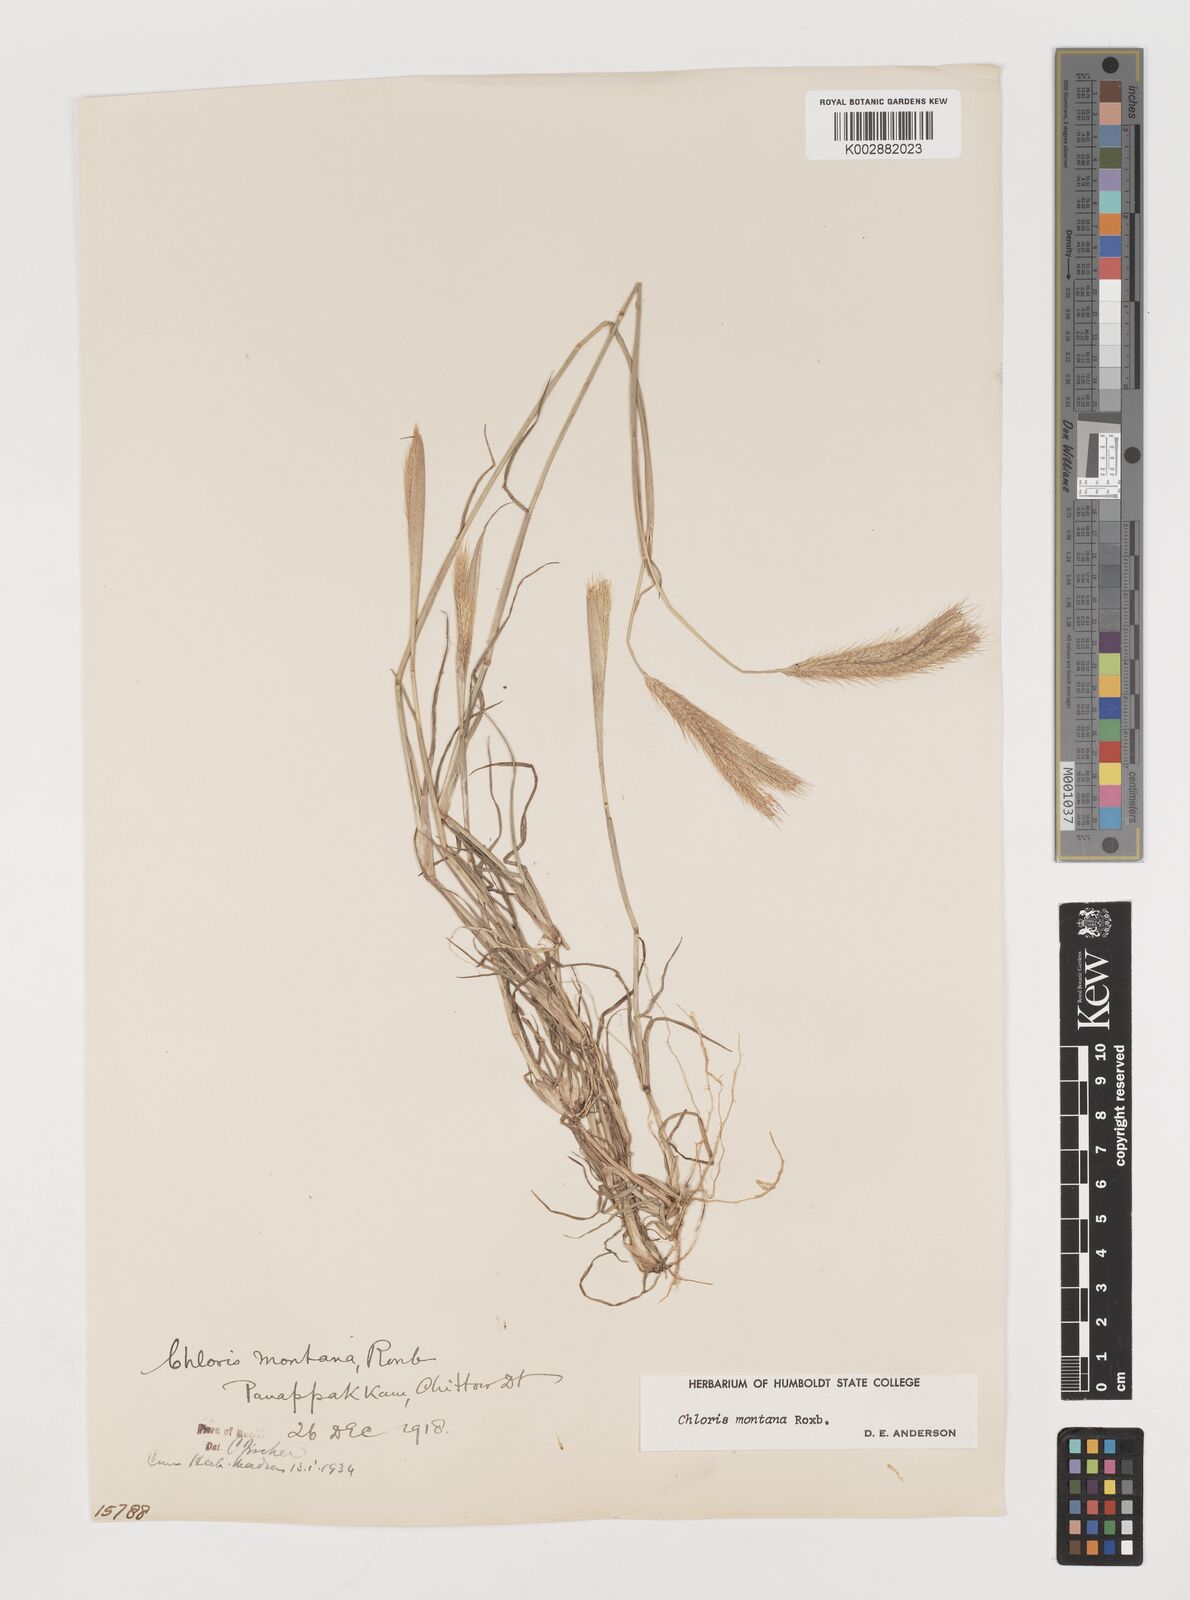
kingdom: Plantae
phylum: Tracheophyta
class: Liliopsida
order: Poales
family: Poaceae
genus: Chloris
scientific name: Chloris montana
